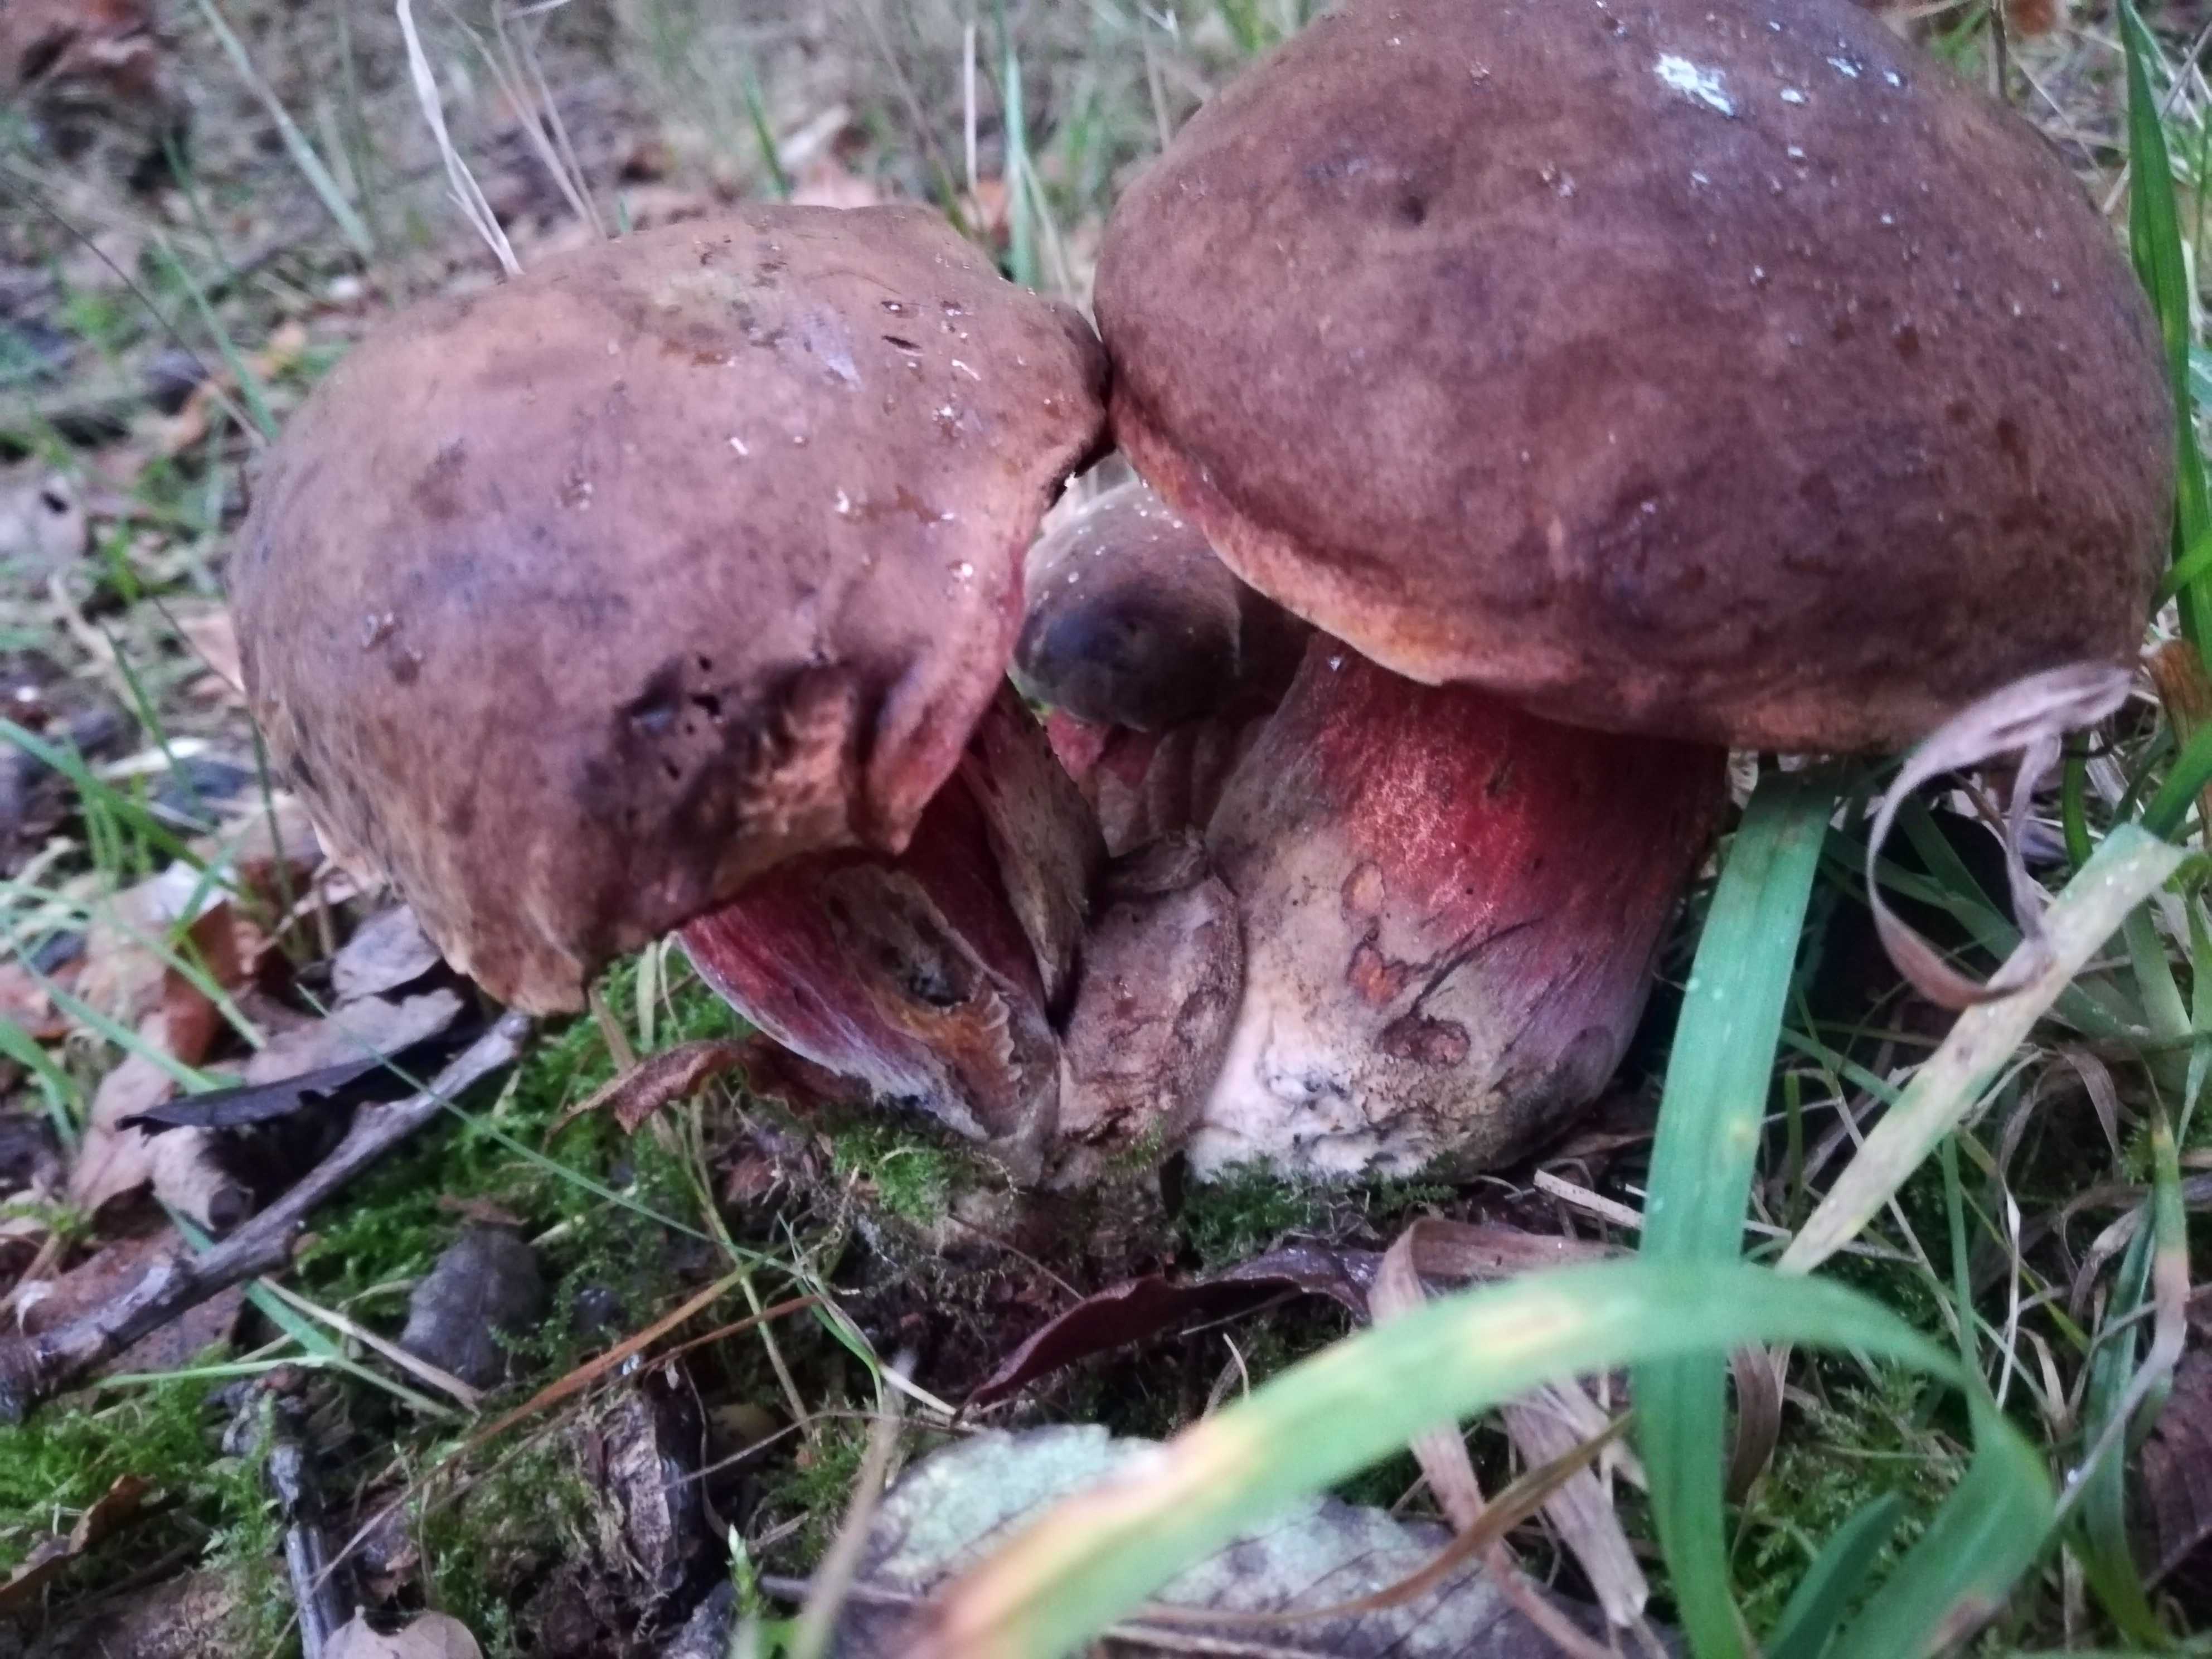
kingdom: Fungi
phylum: Basidiomycota
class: Agaricomycetes
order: Boletales
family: Boletaceae
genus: Neoboletus
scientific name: Neoboletus erythropus
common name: punktstokket indigorørhat
